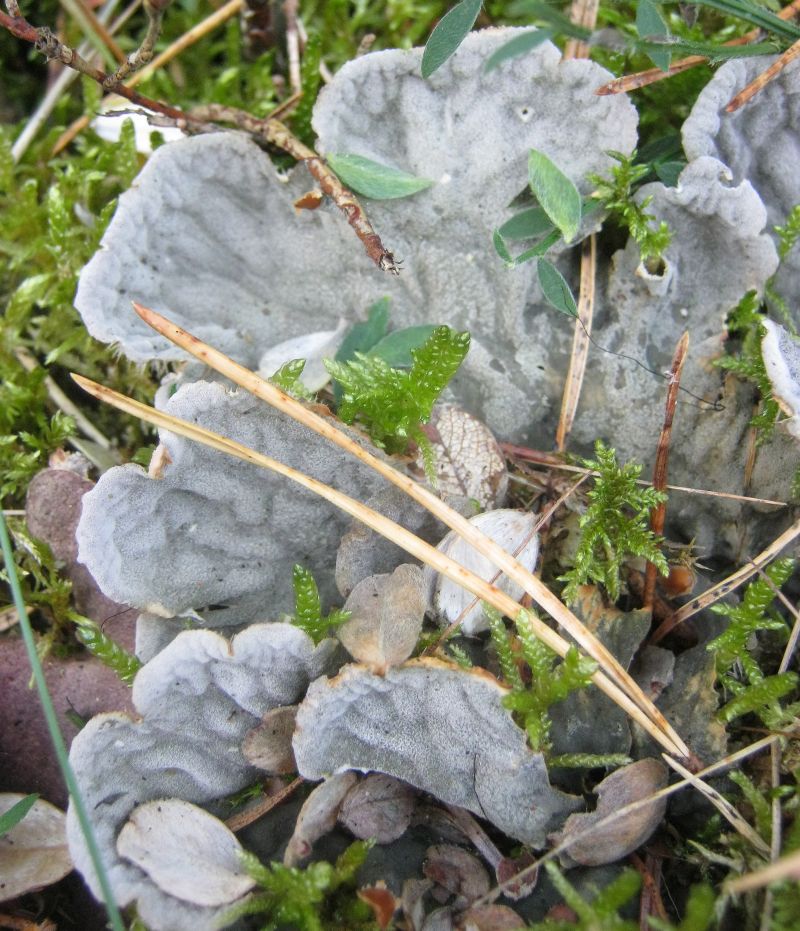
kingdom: Fungi
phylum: Ascomycota
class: Lecanoromycetes
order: Peltigerales
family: Peltigeraceae
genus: Peltigera
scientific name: Peltigera canina
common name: hunde-skjoldlav
